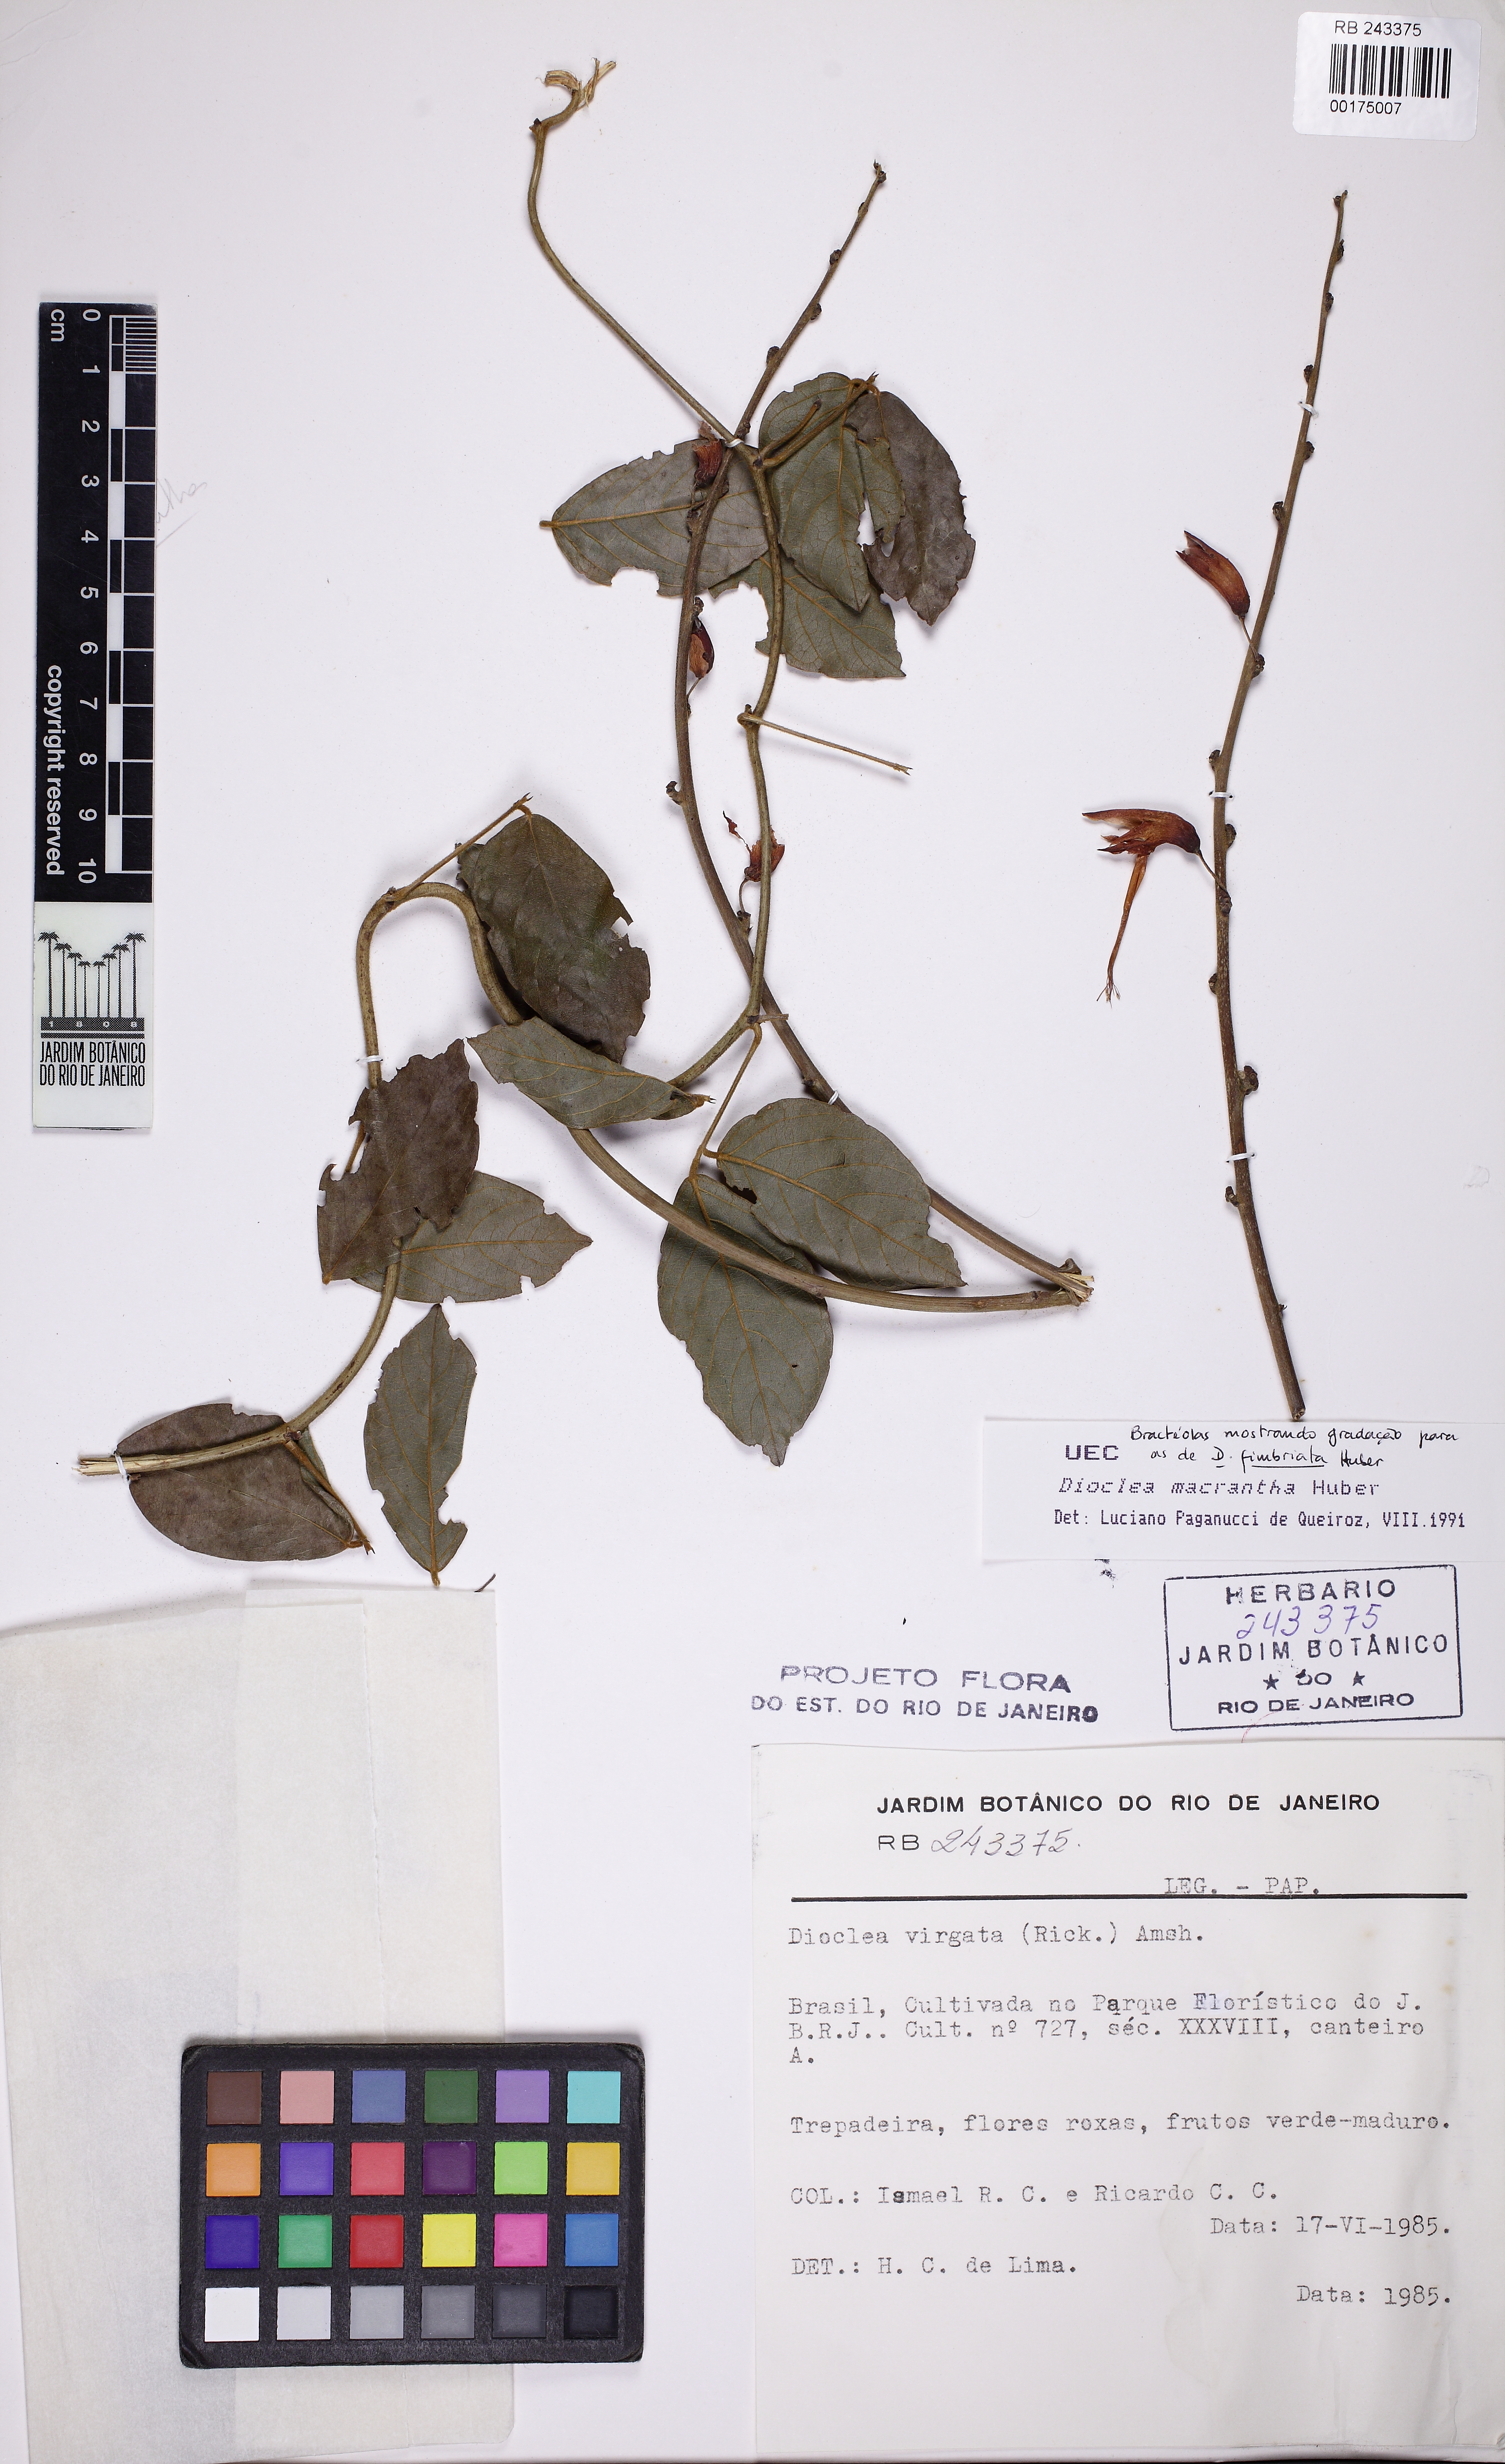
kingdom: Plantae
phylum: Tracheophyta
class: Magnoliopsida
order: Fabales
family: Fabaceae
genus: Dioclea
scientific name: Dioclea macrantha
